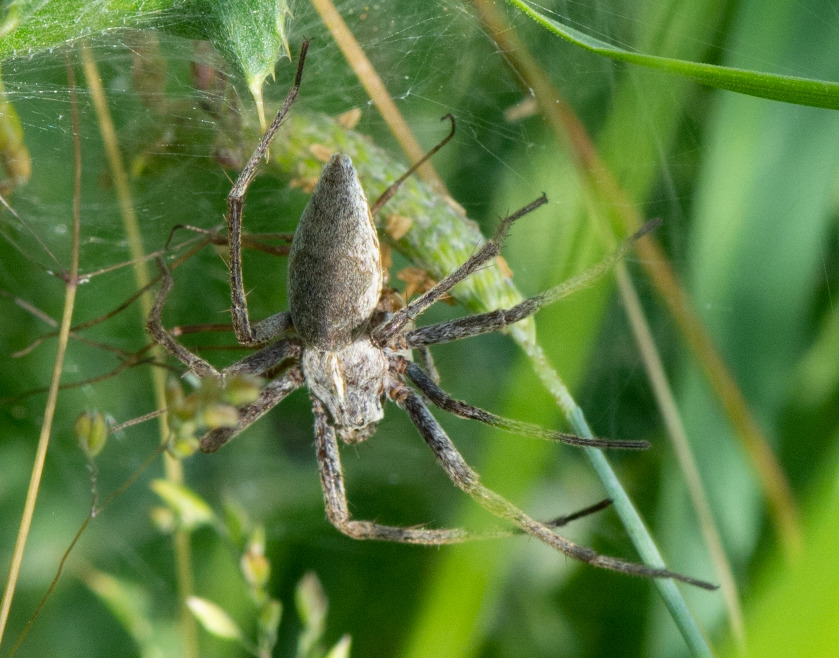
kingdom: Animalia
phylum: Arthropoda
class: Arachnida
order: Araneae
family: Pisauridae
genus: Pisaura
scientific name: Pisaura mirabilis
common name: Almindelig rovedderkop
